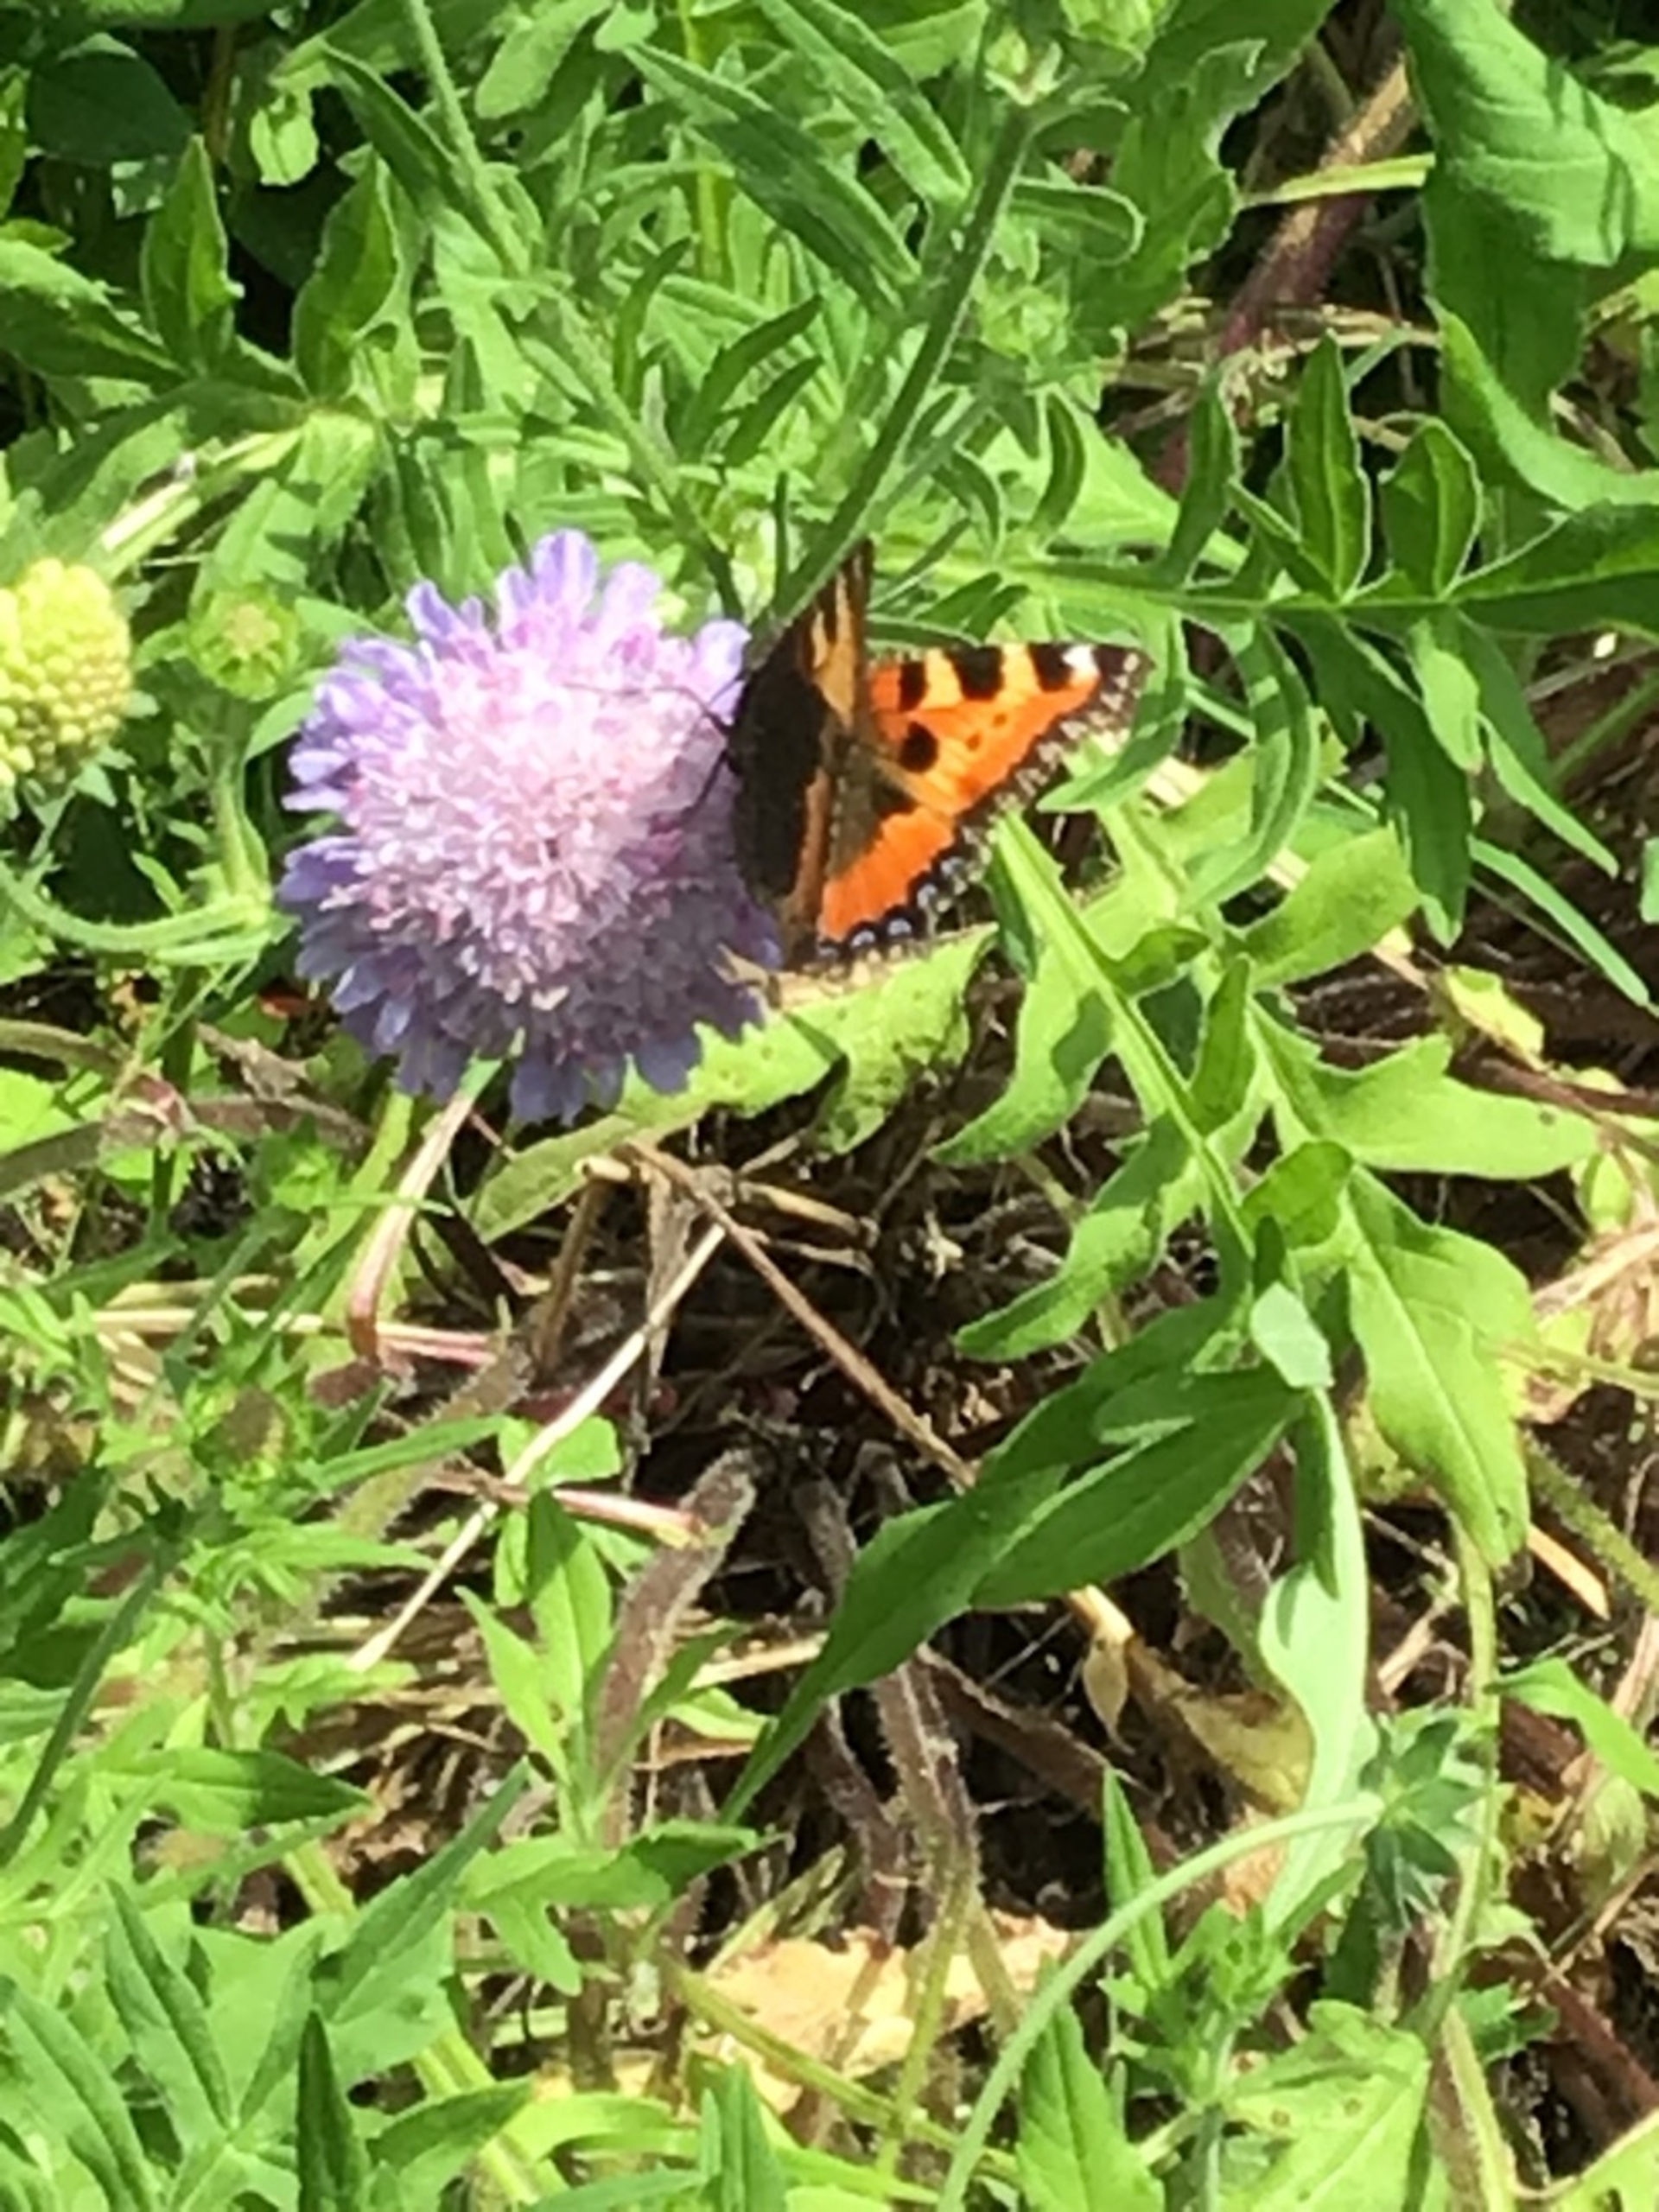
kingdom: Animalia
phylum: Arthropoda
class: Insecta
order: Lepidoptera
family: Nymphalidae
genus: Aglais
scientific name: Aglais urticae
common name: Nældens takvinge
